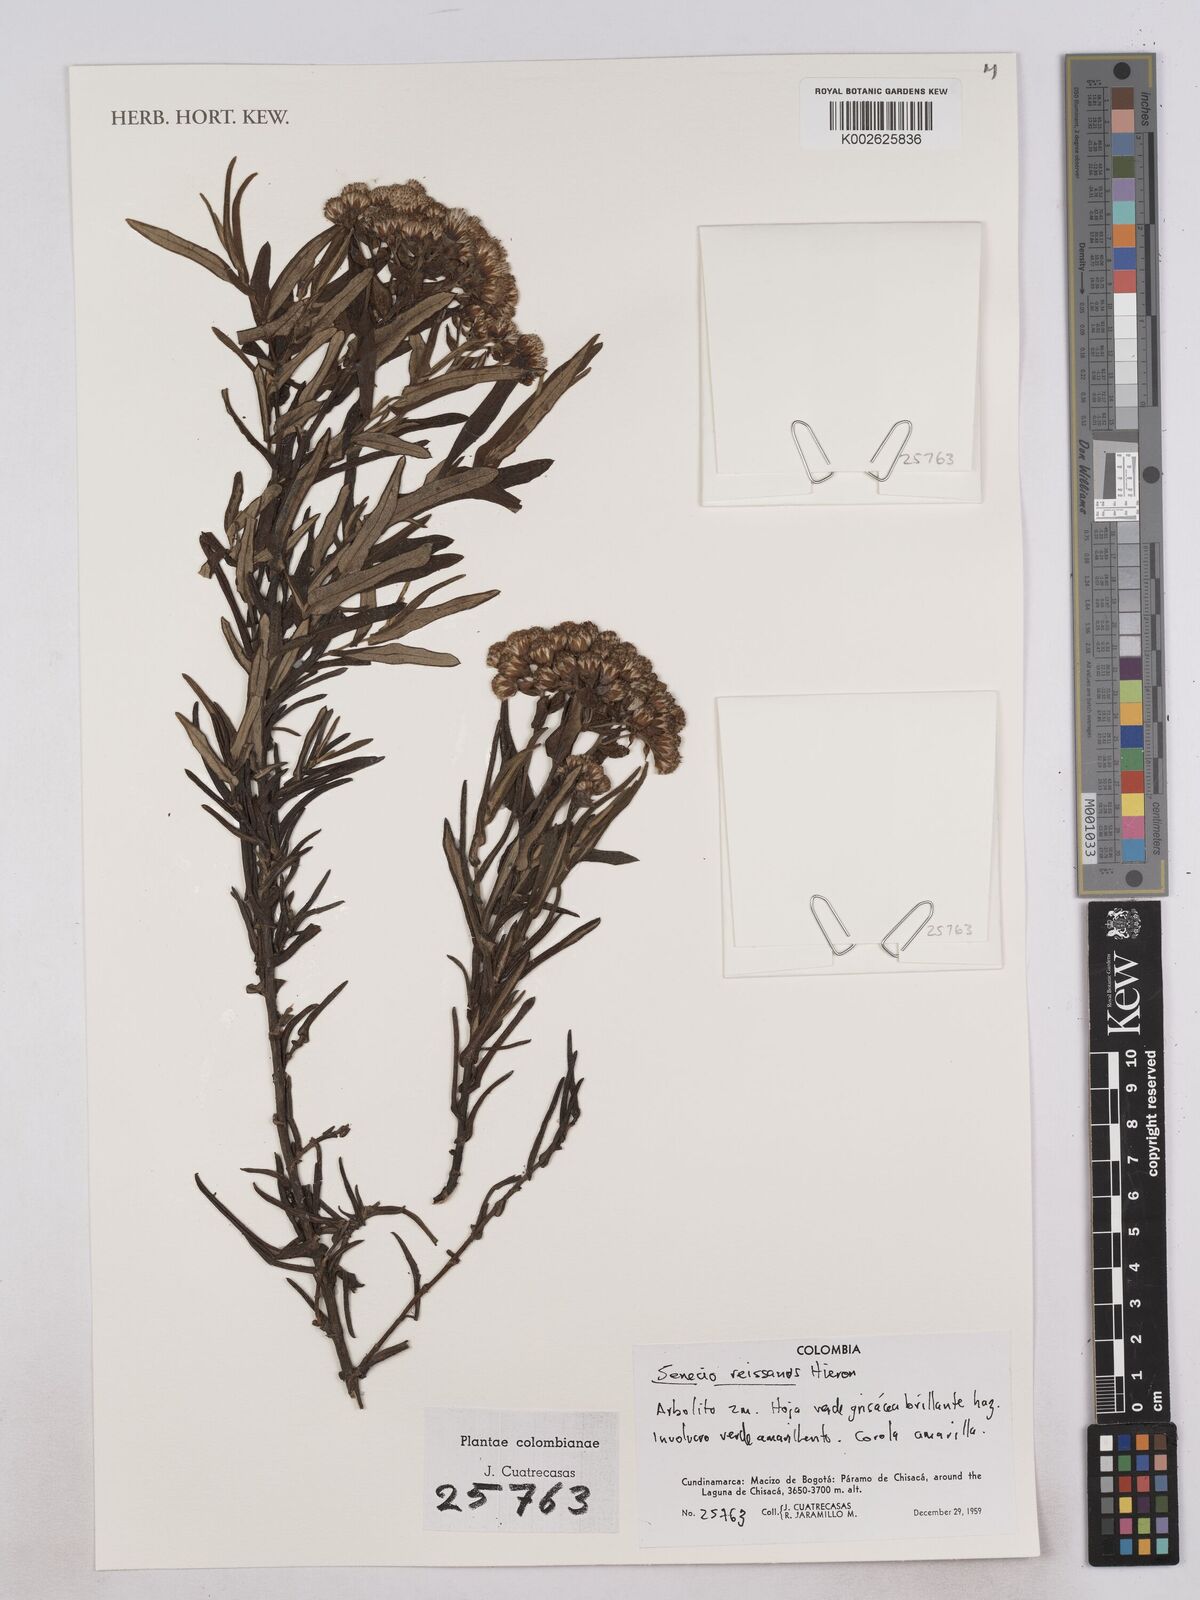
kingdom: Plantae
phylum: Tracheophyta
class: Magnoliopsida
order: Asterales
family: Asteraceae
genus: Monticalia
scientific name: Monticalia
